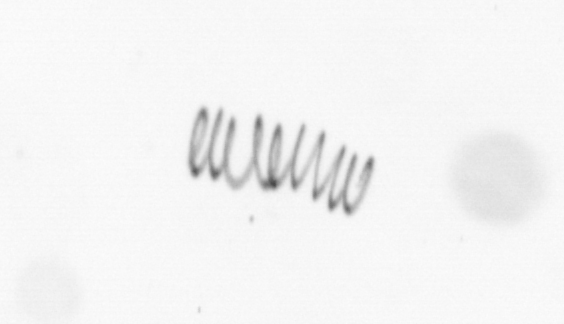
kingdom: Chromista
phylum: Ochrophyta
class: Bacillariophyceae
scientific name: Bacillariophyceae
